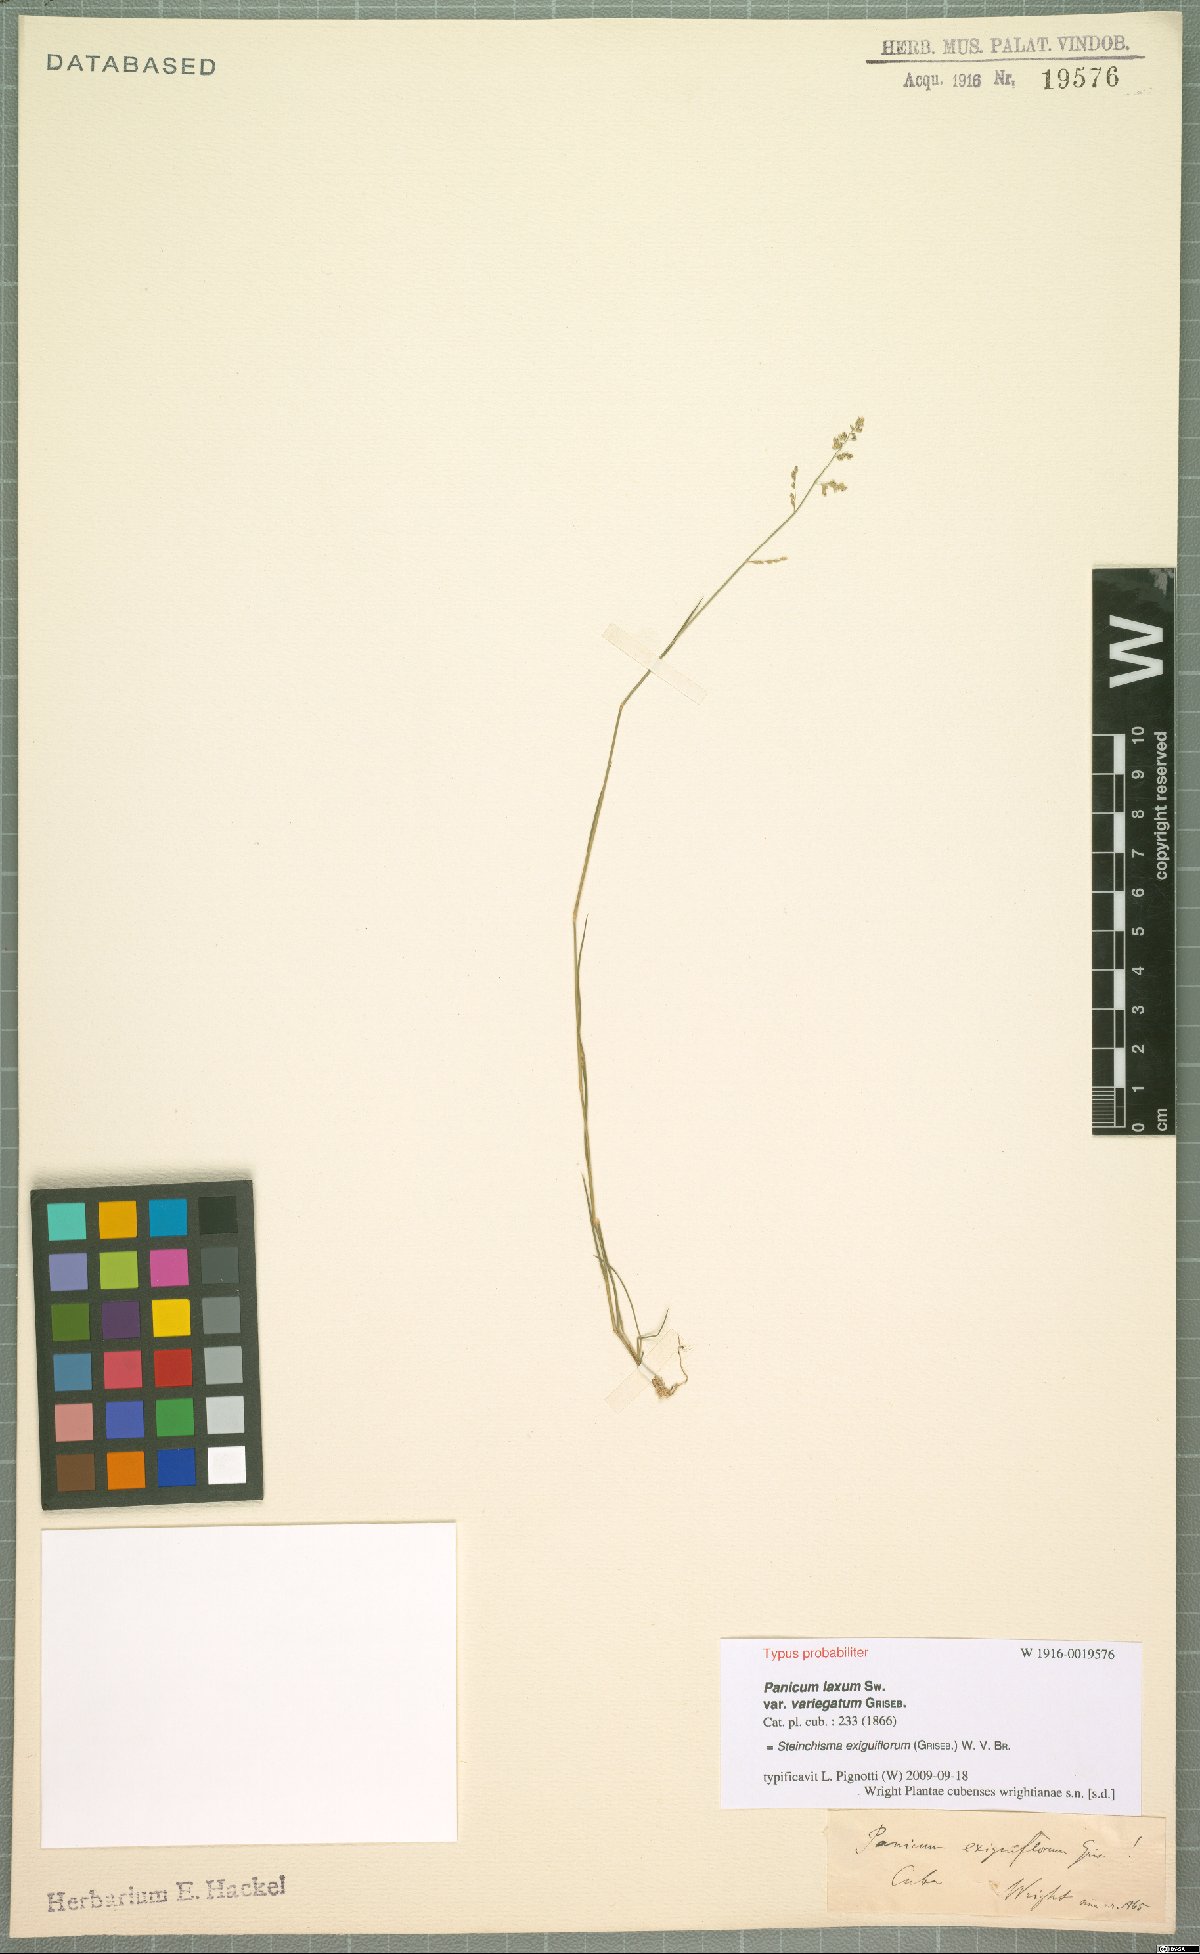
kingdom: Plantae
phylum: Tracheophyta
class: Liliopsida
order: Poales
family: Poaceae
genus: Steinchisma
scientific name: Steinchisma exiguiflorum
